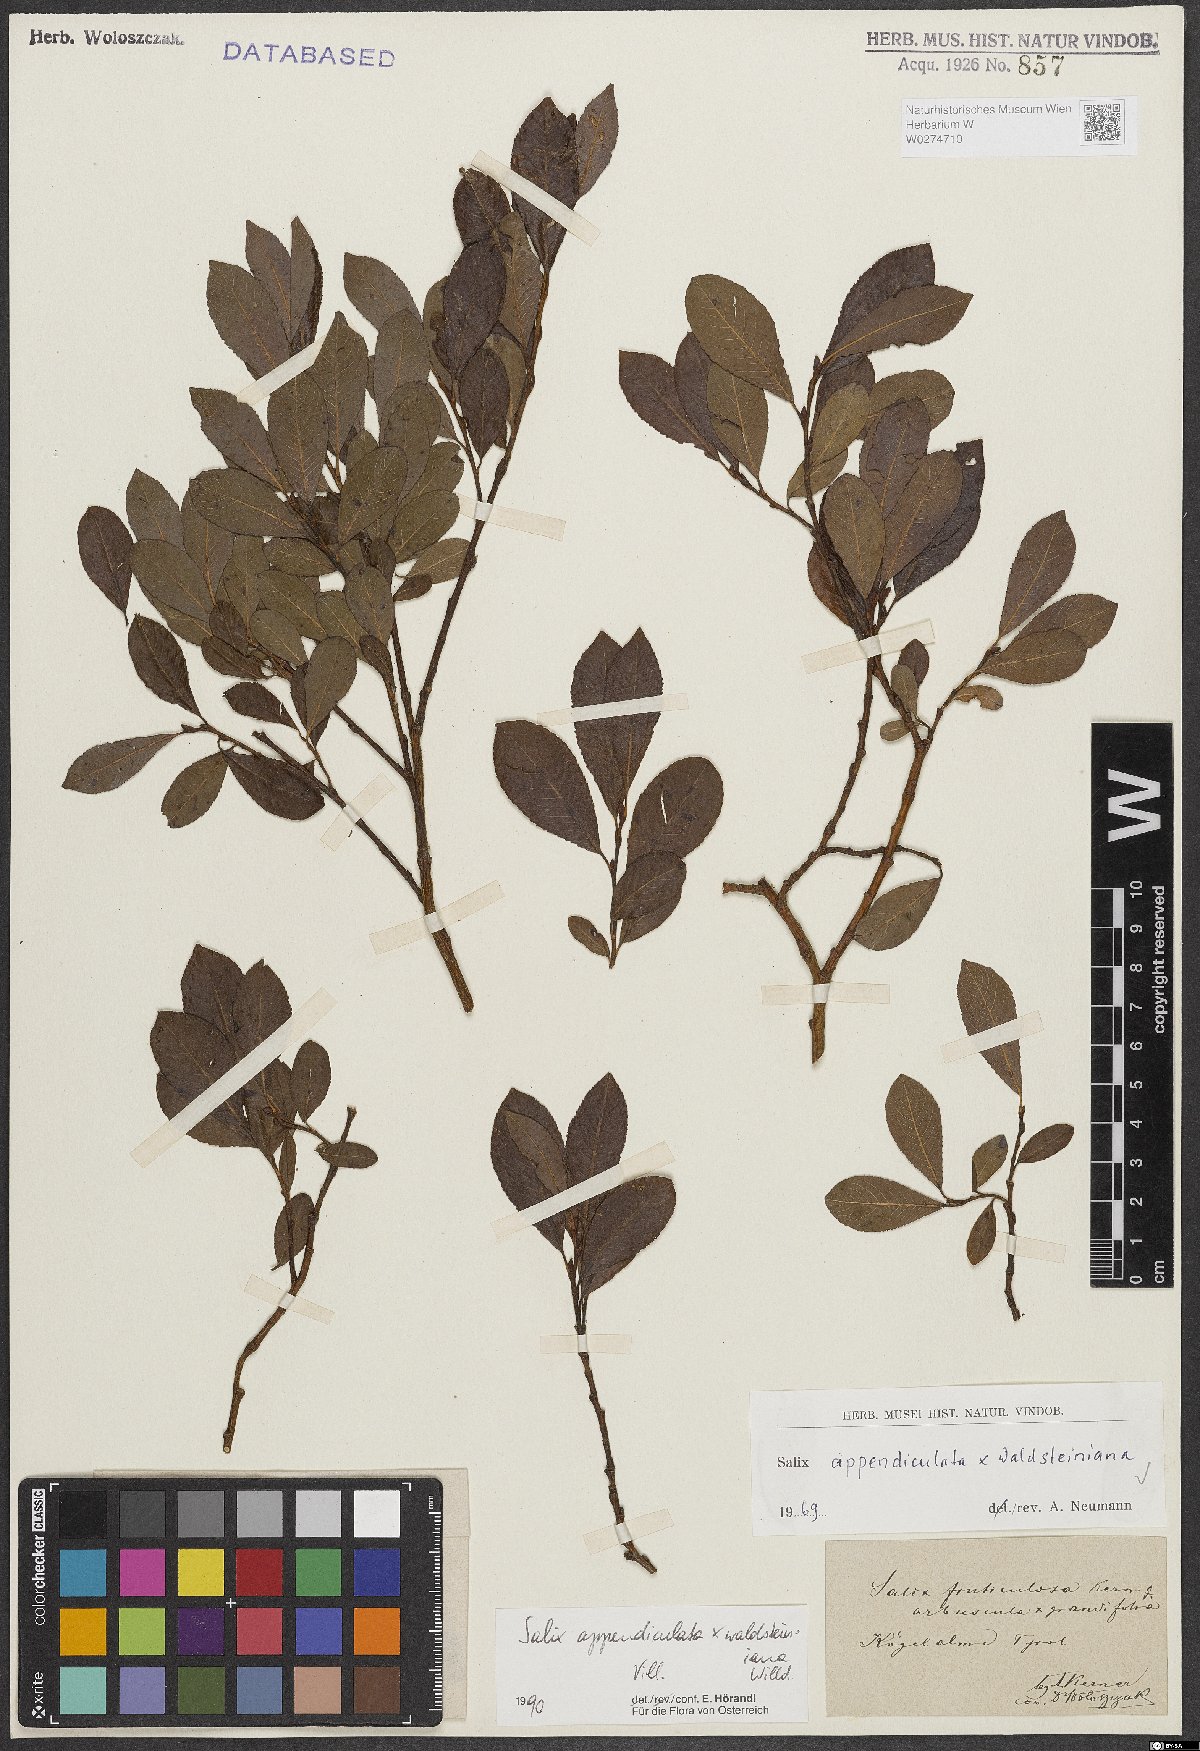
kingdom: Plantae
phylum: Tracheophyta
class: Magnoliopsida
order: Malpighiales
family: Salicaceae
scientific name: Salicaceae
